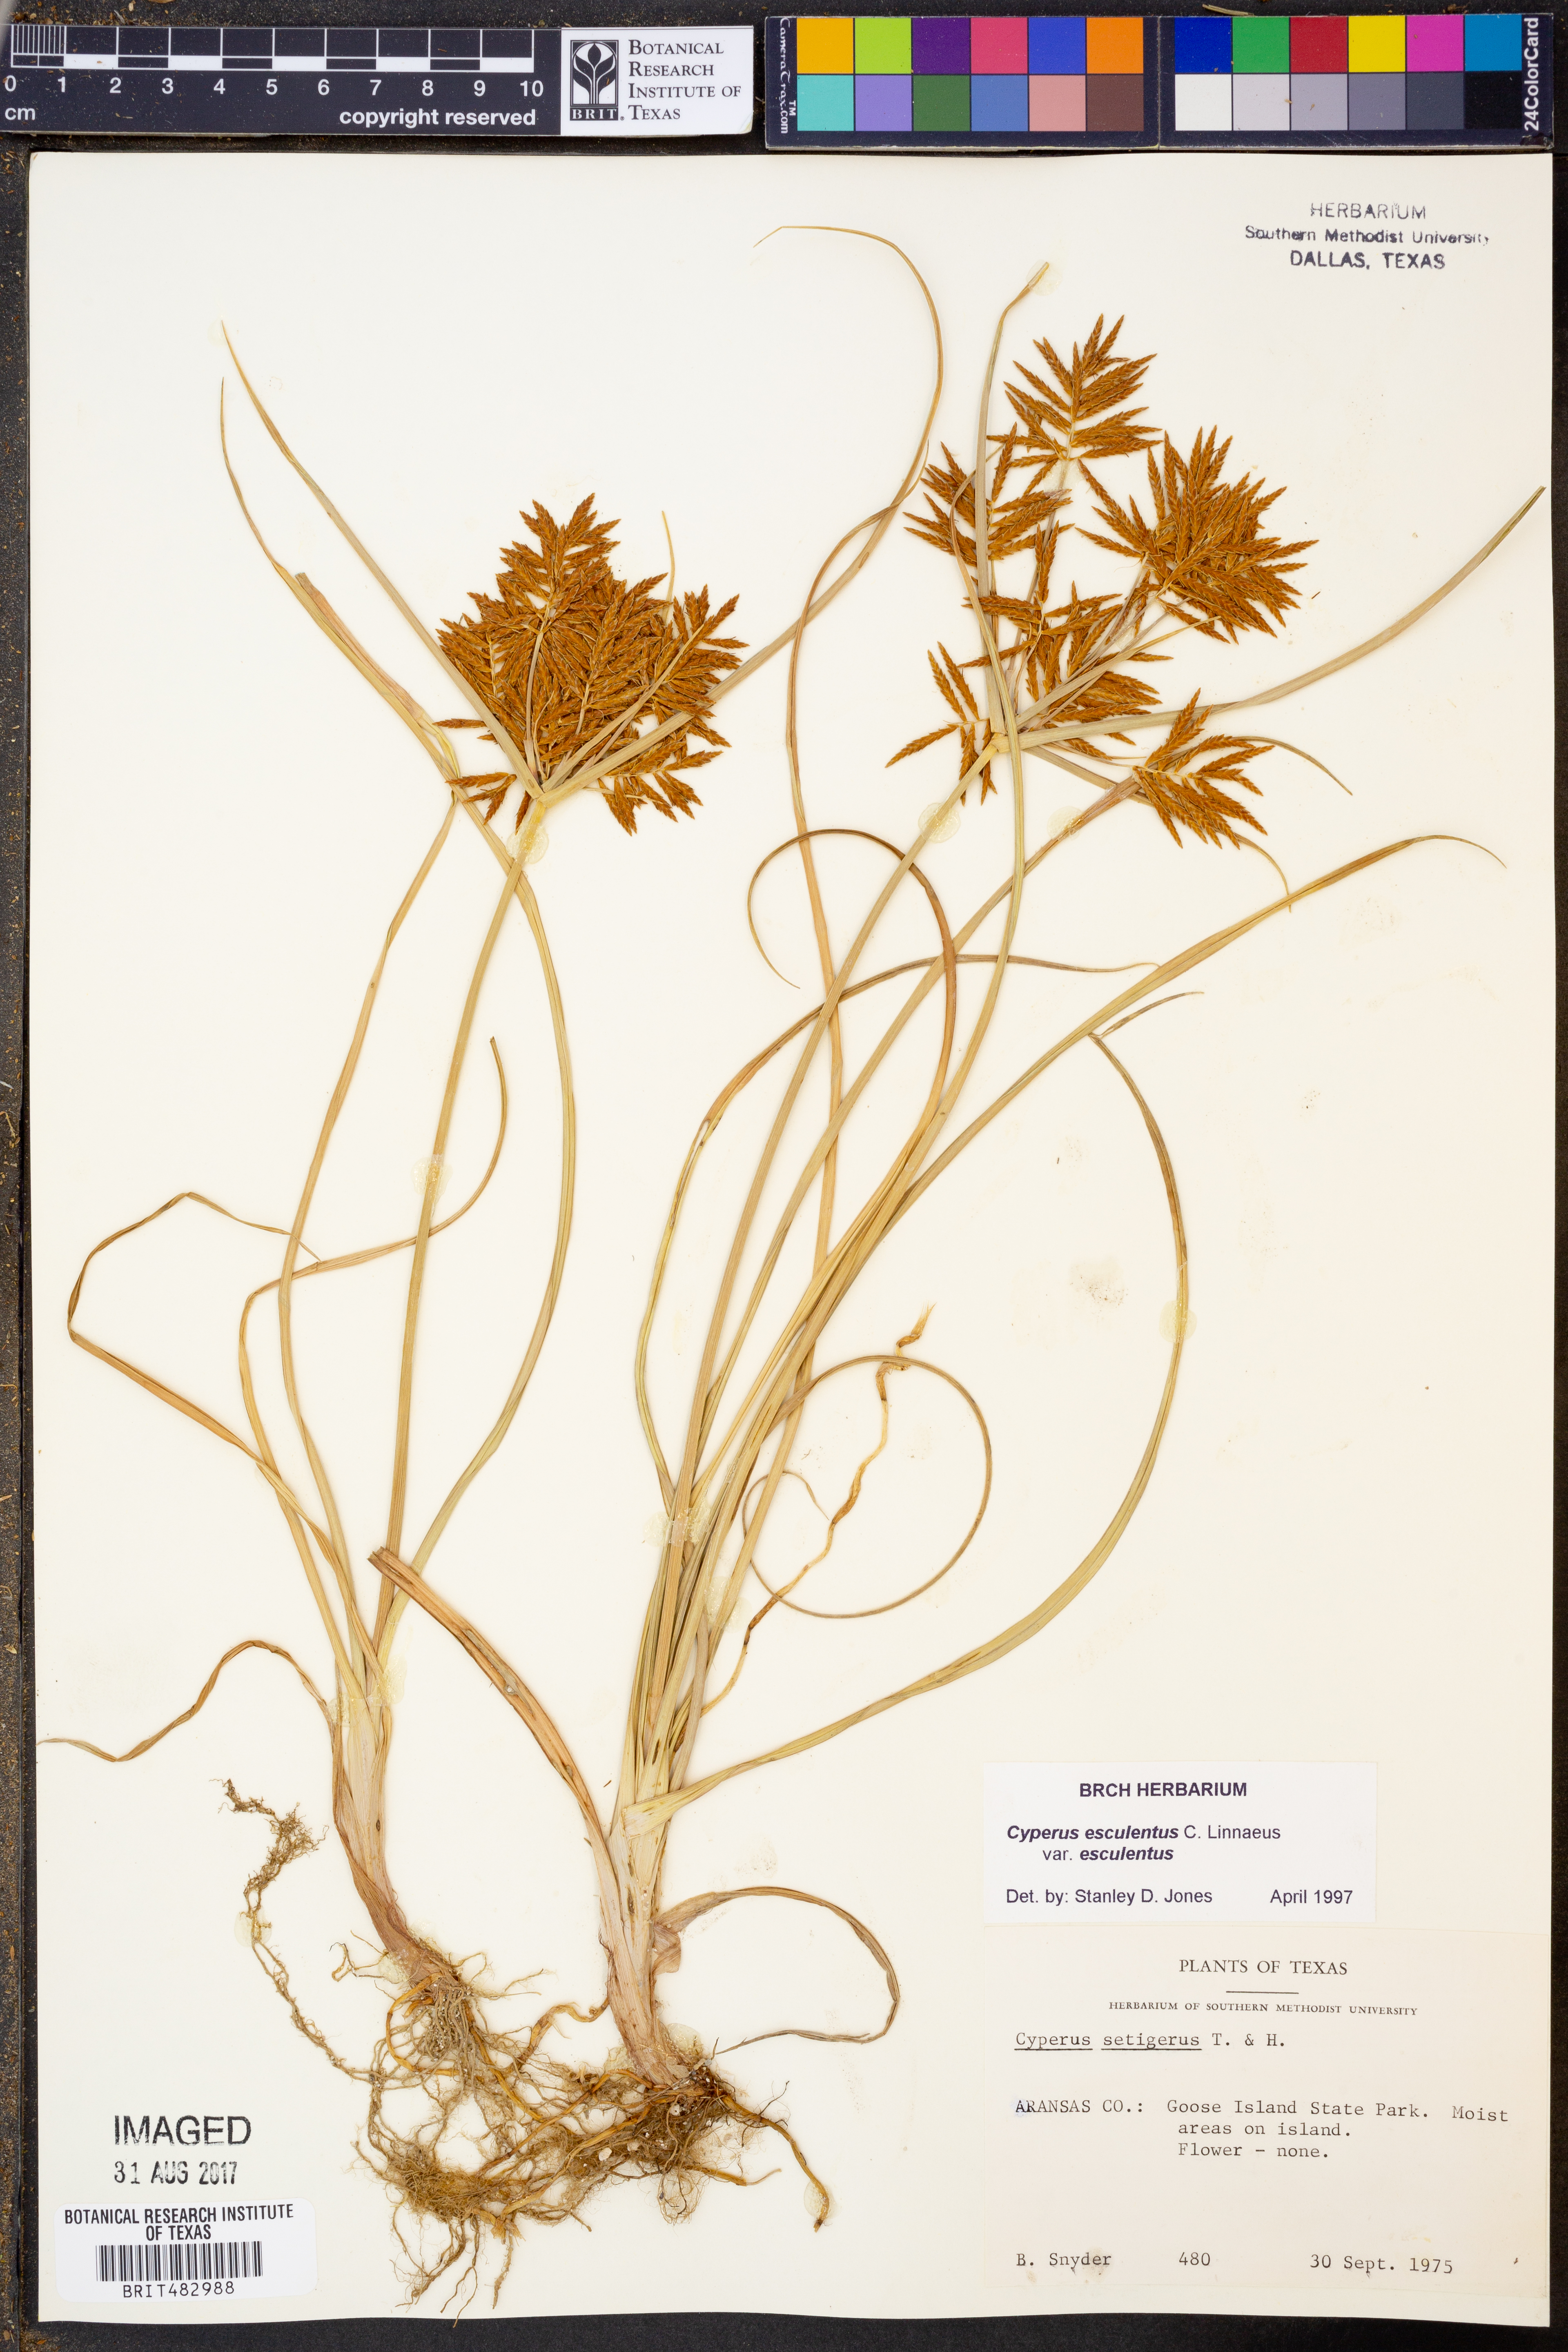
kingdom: Plantae
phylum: Tracheophyta
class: Liliopsida
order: Poales
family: Cyperaceae
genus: Cyperus
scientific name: Cyperus esculentus
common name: Yellow nutsedge
